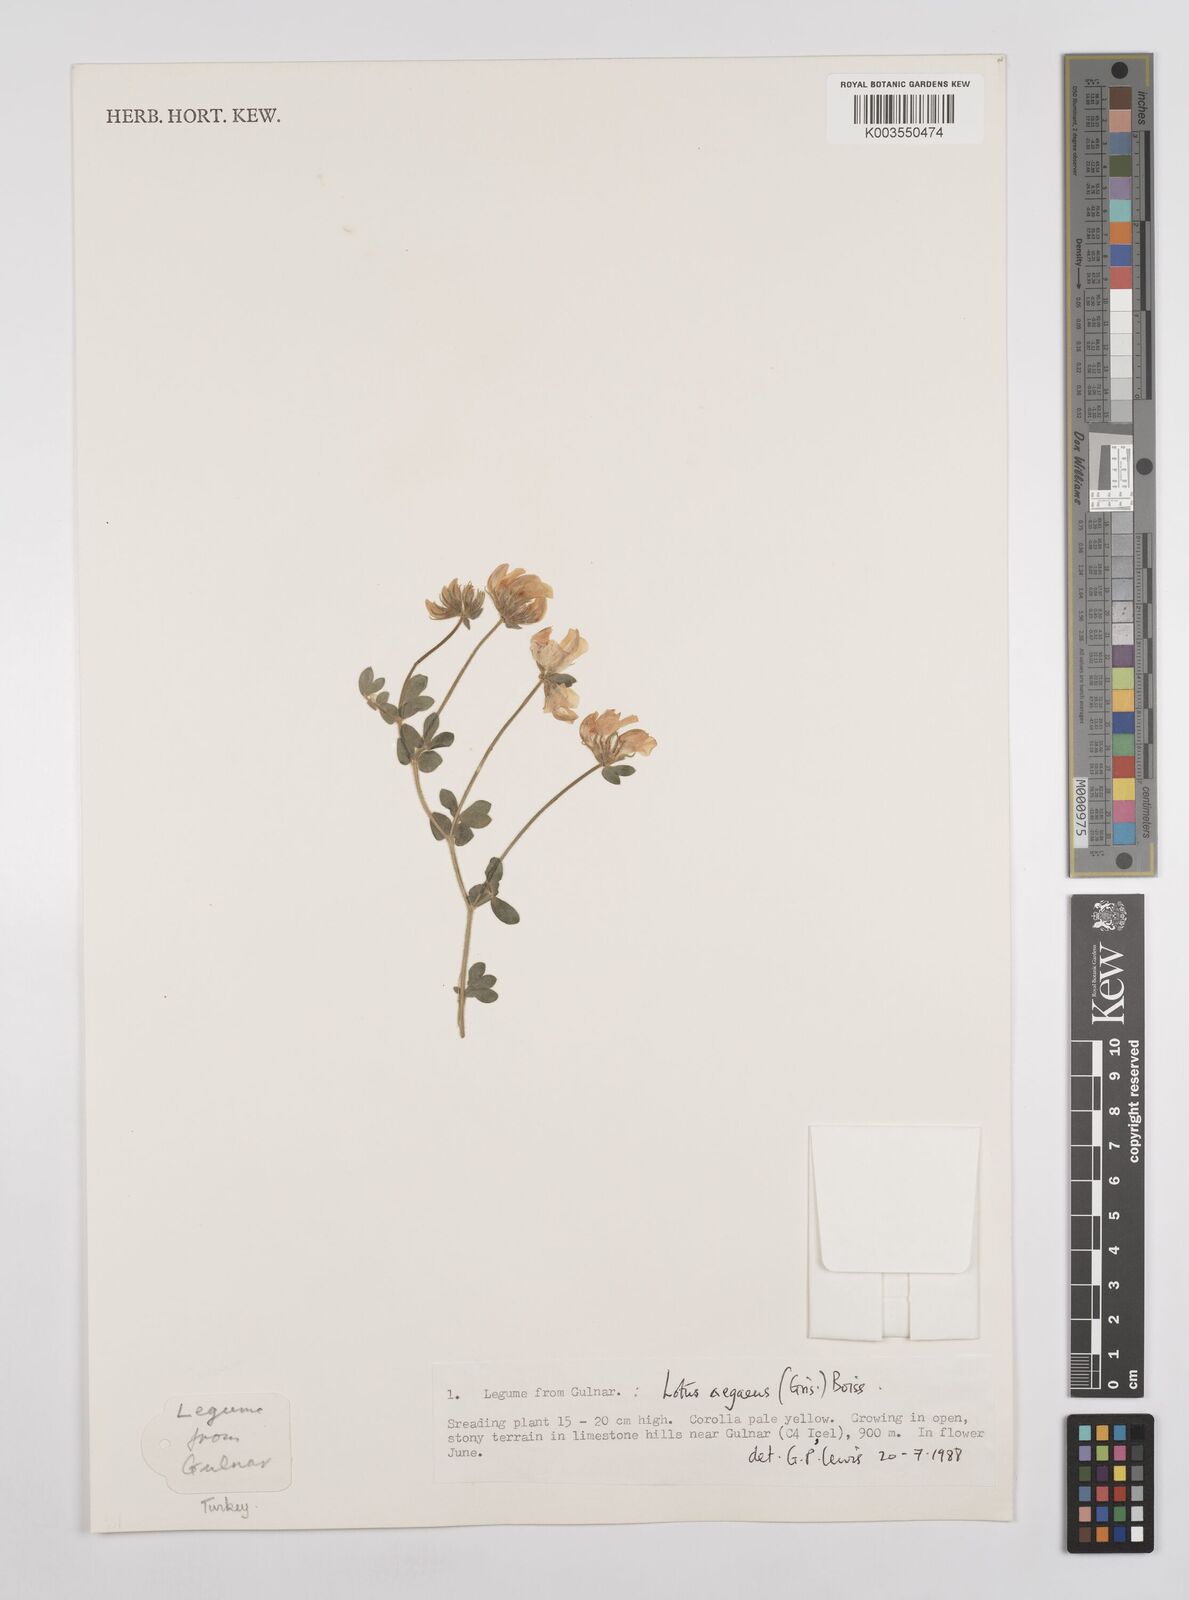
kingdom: Plantae
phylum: Tracheophyta
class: Magnoliopsida
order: Fabales
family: Fabaceae
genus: Lotus
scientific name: Lotus aegaeus
